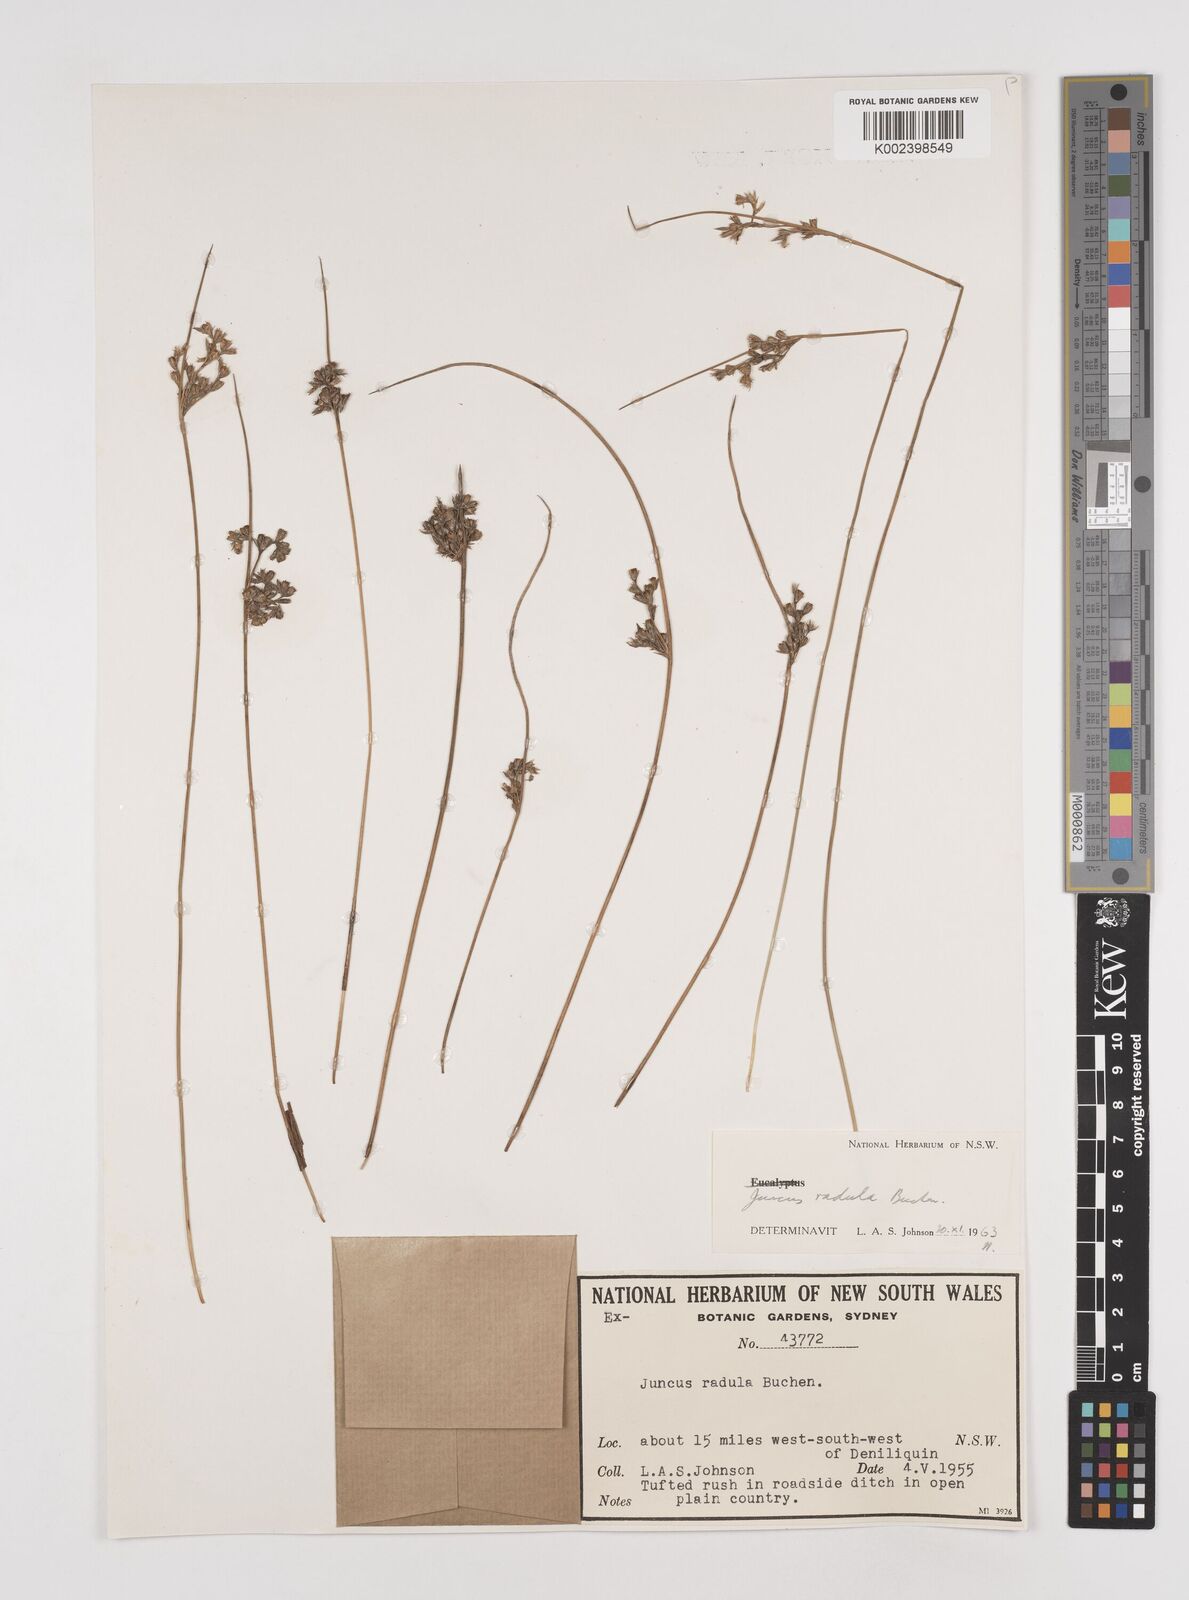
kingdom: Plantae
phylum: Tracheophyta
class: Liliopsida
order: Poales
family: Juncaceae
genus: Juncus
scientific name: Juncus radula
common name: Hoary rush
